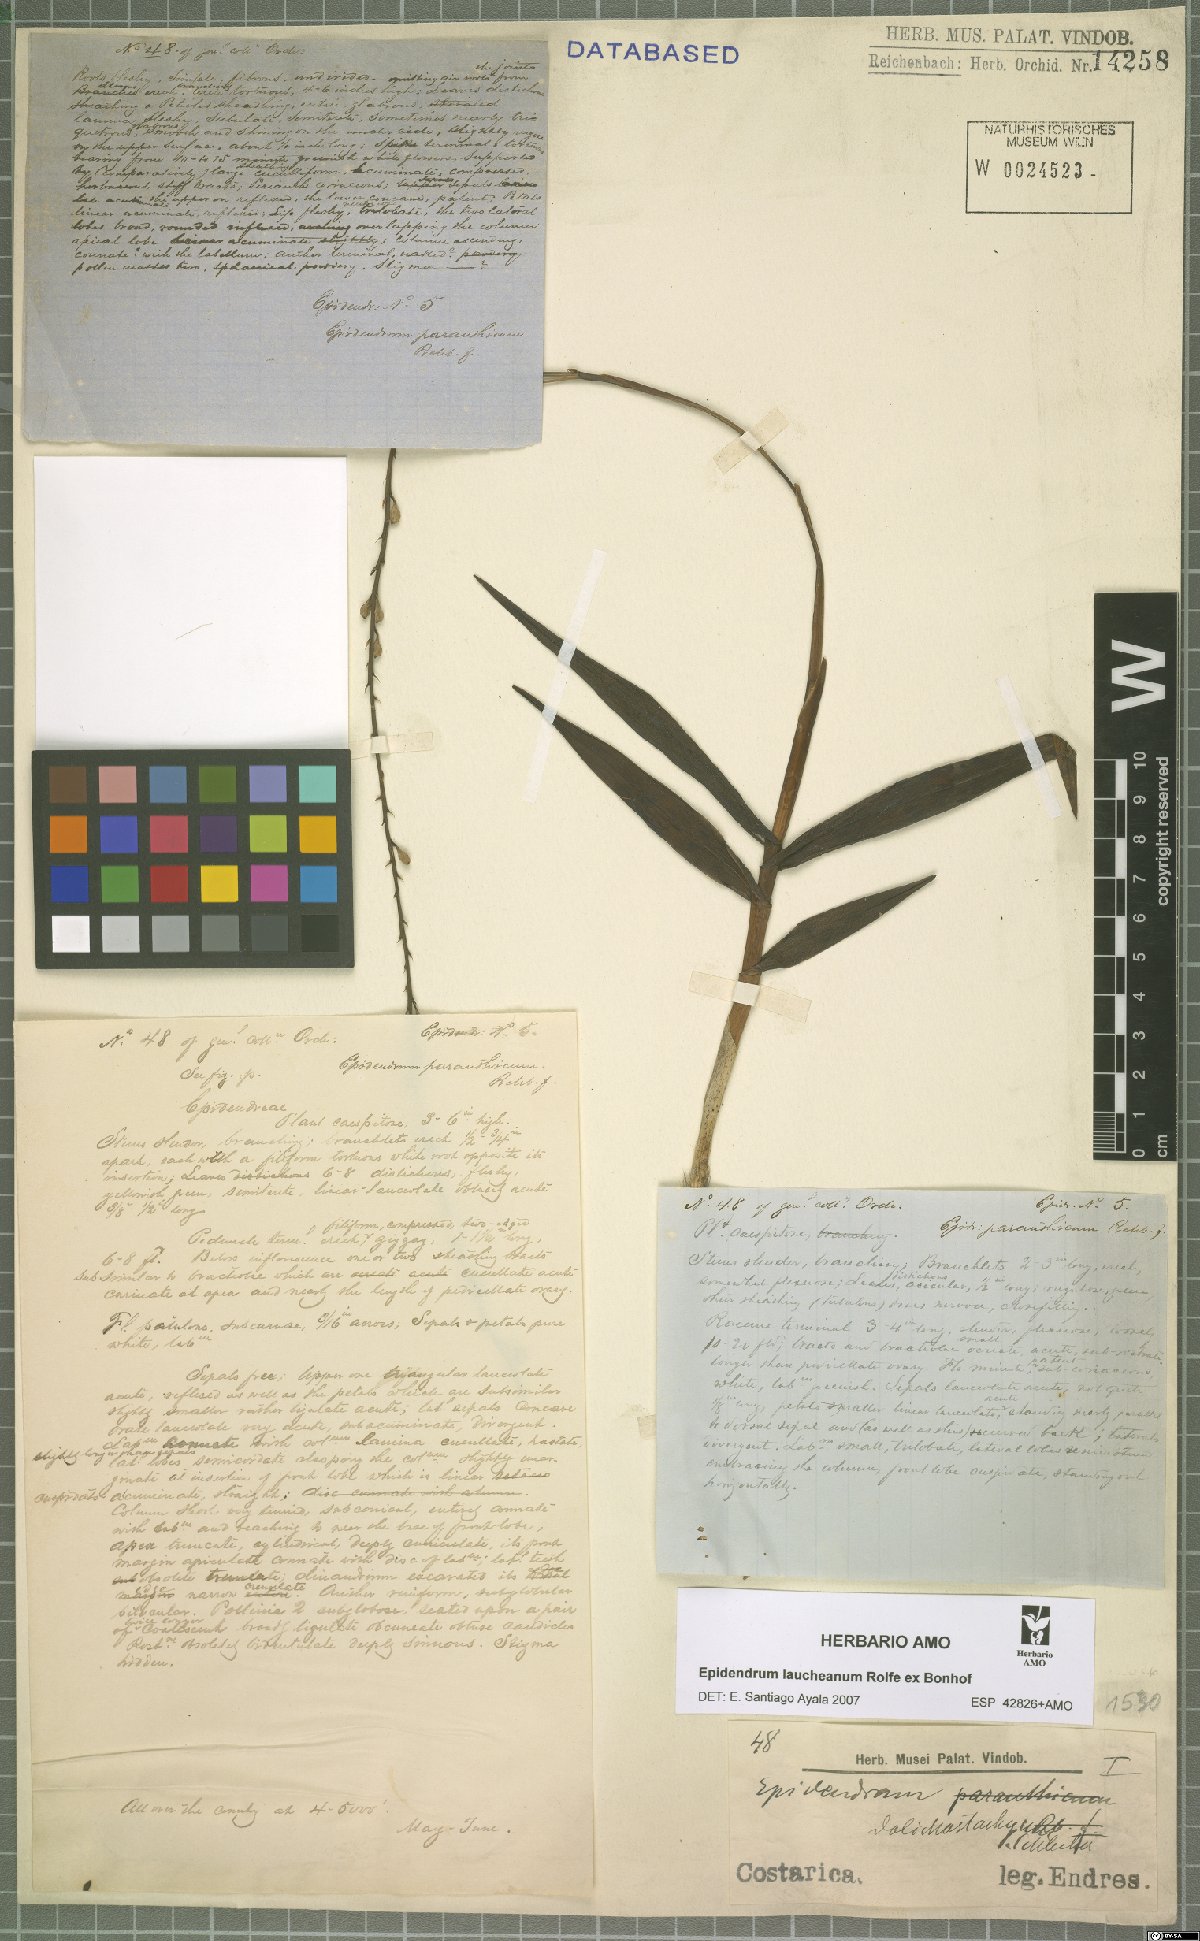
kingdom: Plantae
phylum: Tracheophyta
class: Liliopsida
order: Asparagales
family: Orchidaceae
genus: Epidendrum
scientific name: Epidendrum laucheanum
